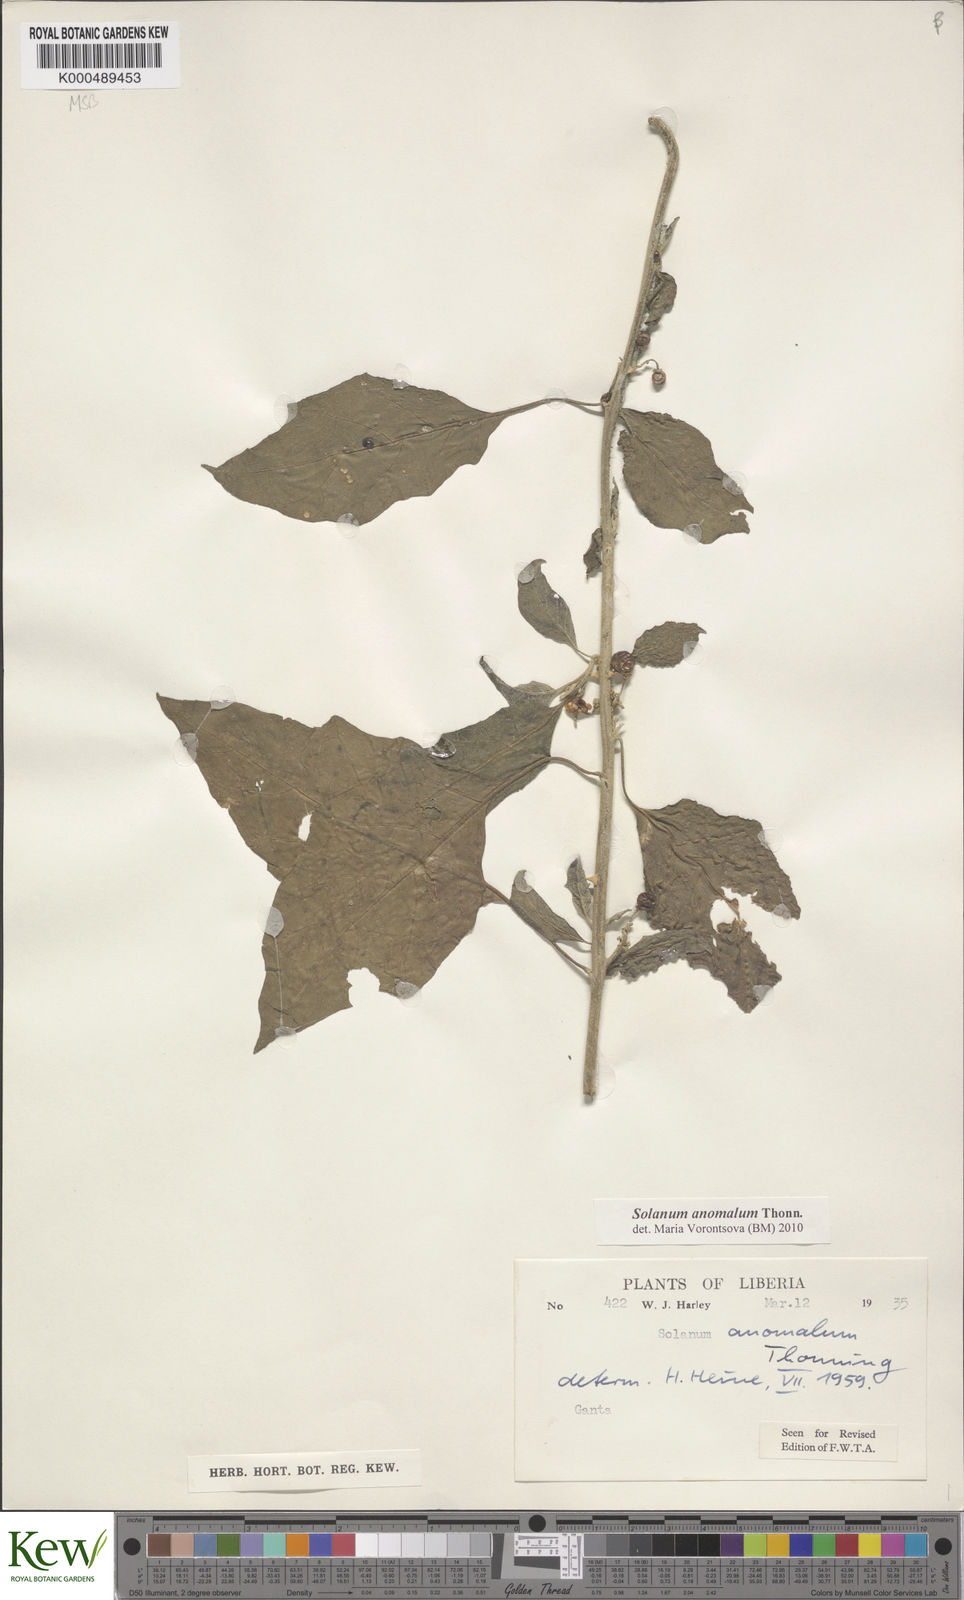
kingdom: Plantae
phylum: Tracheophyta
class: Magnoliopsida
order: Solanales
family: Solanaceae
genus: Solanum
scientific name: Solanum anomalum
